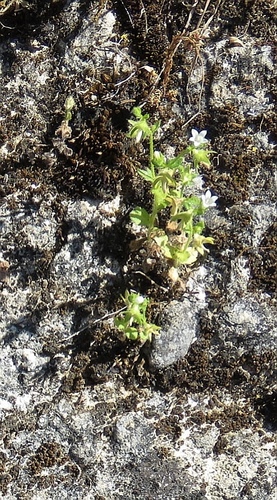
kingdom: Plantae
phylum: Tracheophyta
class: Magnoliopsida
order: Asterales
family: Campanulaceae
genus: Campanula
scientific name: Campanula erinus
